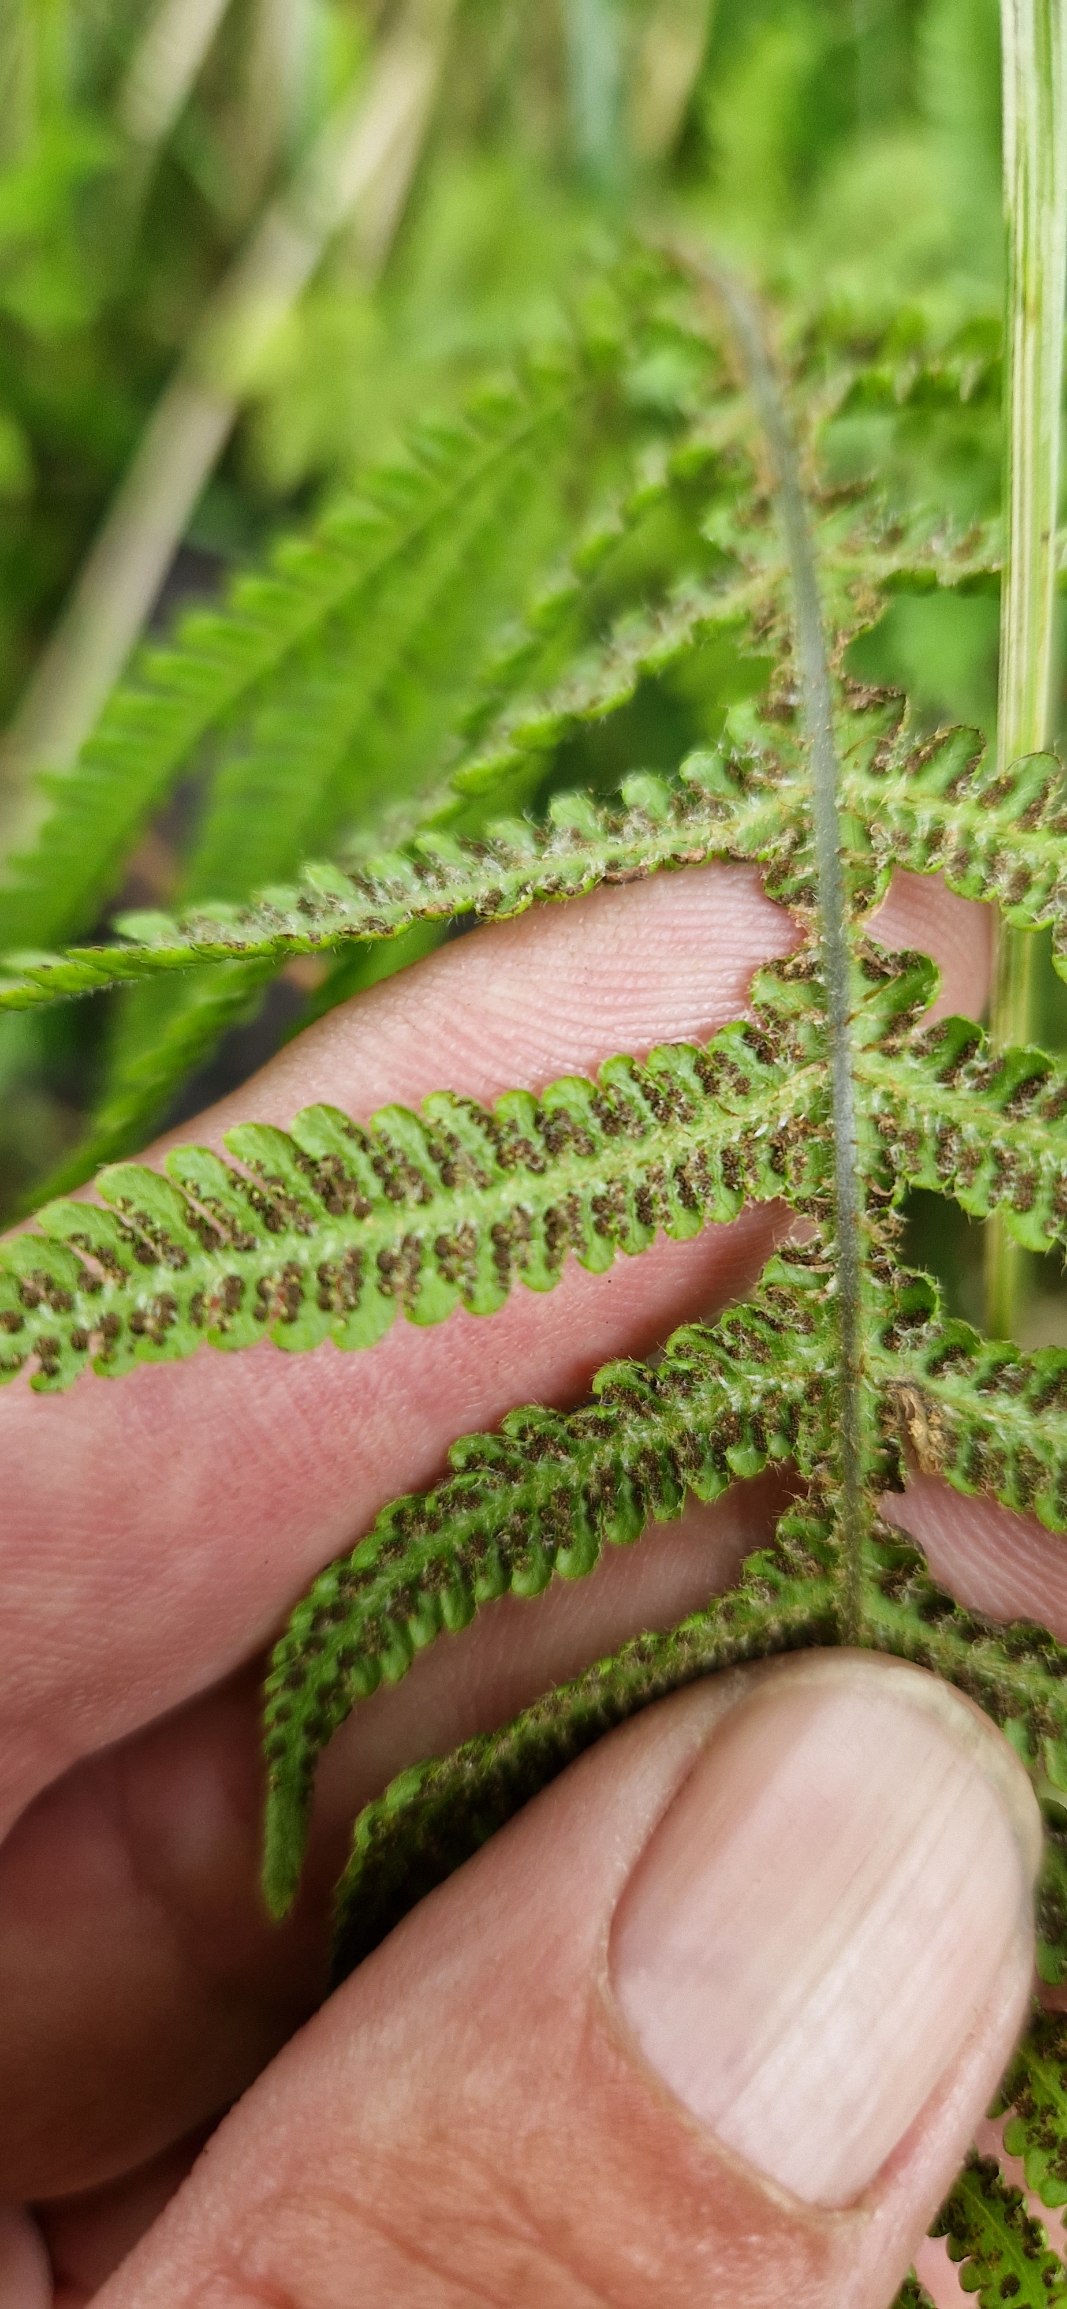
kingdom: Plantae
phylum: Tracheophyta
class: Polypodiopsida
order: Polypodiales
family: Thelypteridaceae
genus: Phegopteris
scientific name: Phegopteris connectilis
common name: Dunet egebregne
